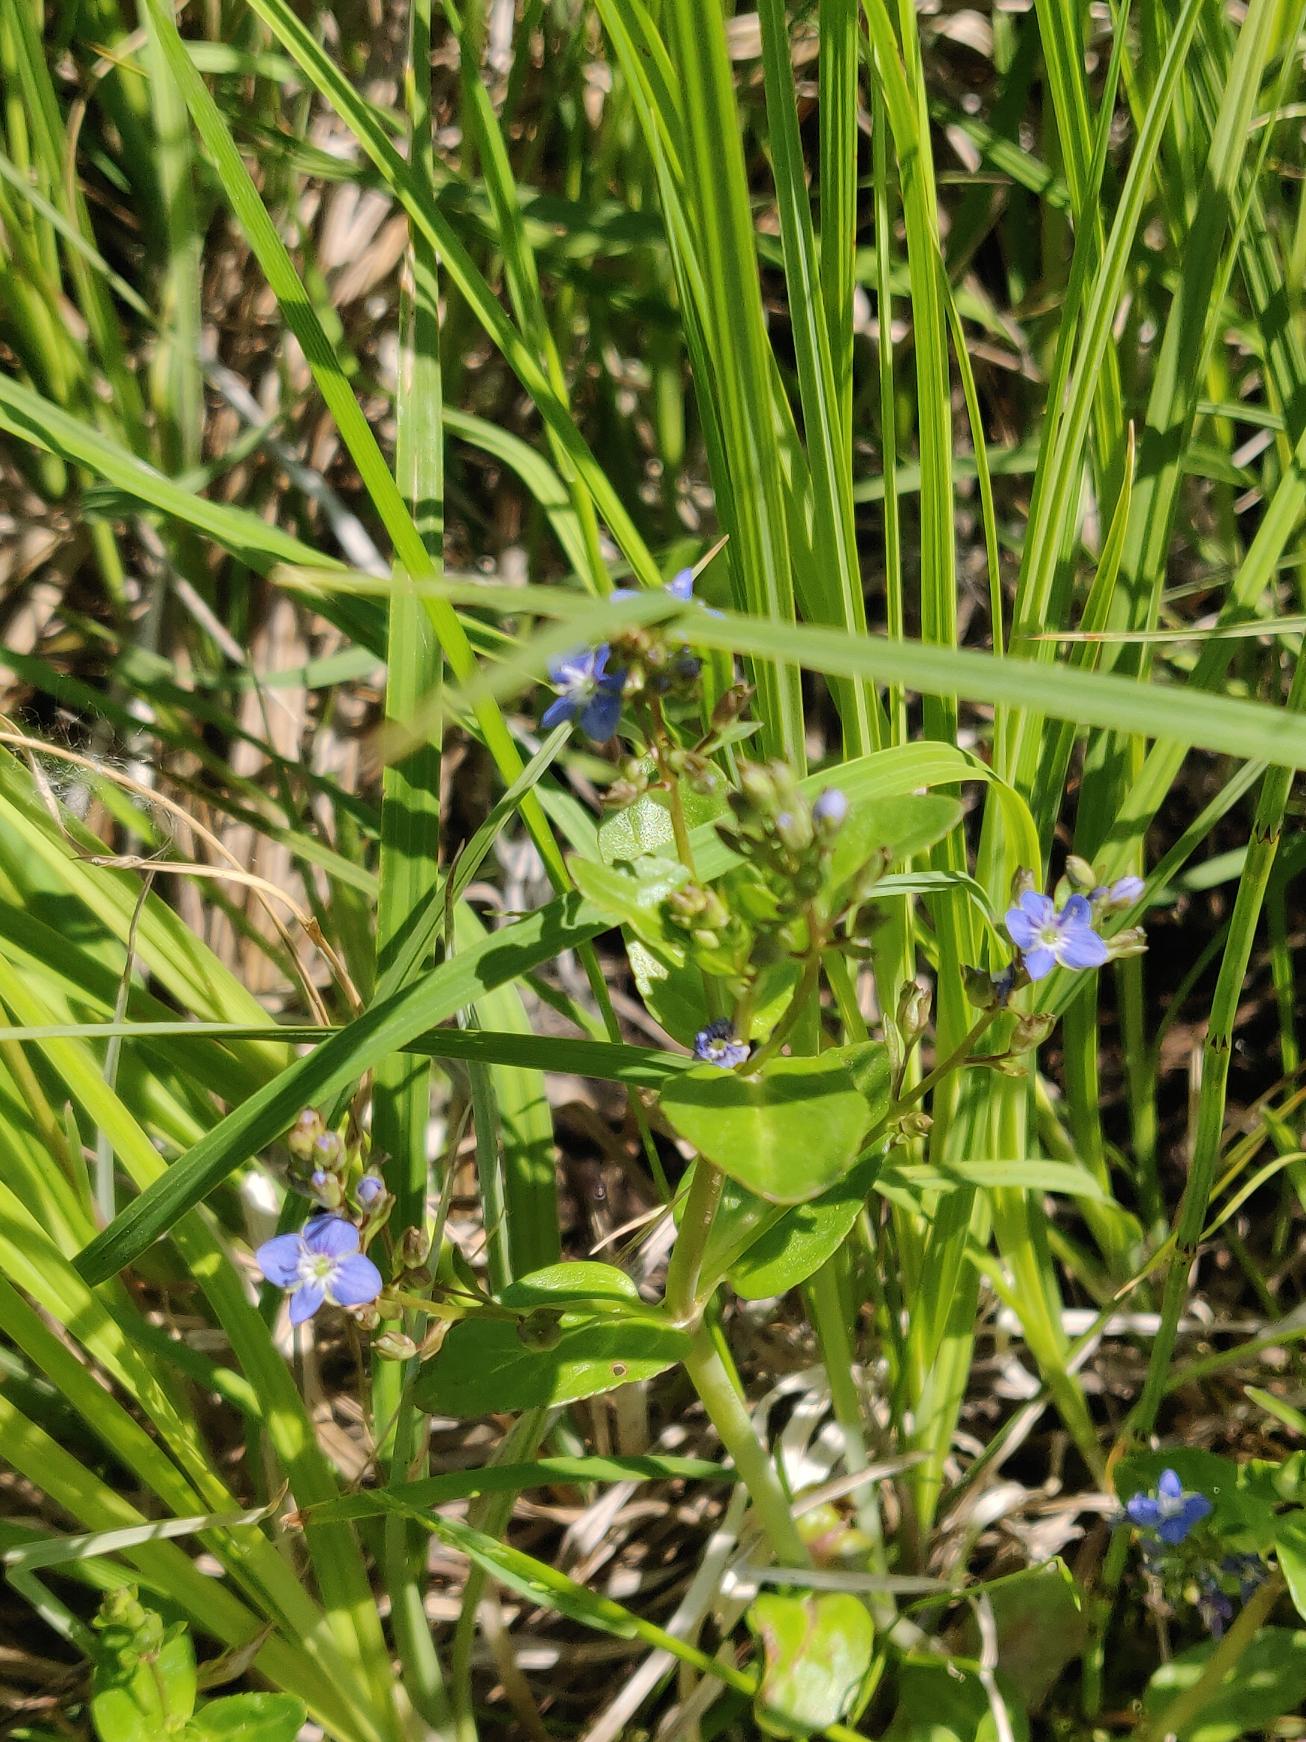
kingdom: Plantae
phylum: Tracheophyta
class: Magnoliopsida
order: Lamiales
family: Plantaginaceae
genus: Veronica
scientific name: Veronica beccabunga
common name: Tykbladet ærenpris
